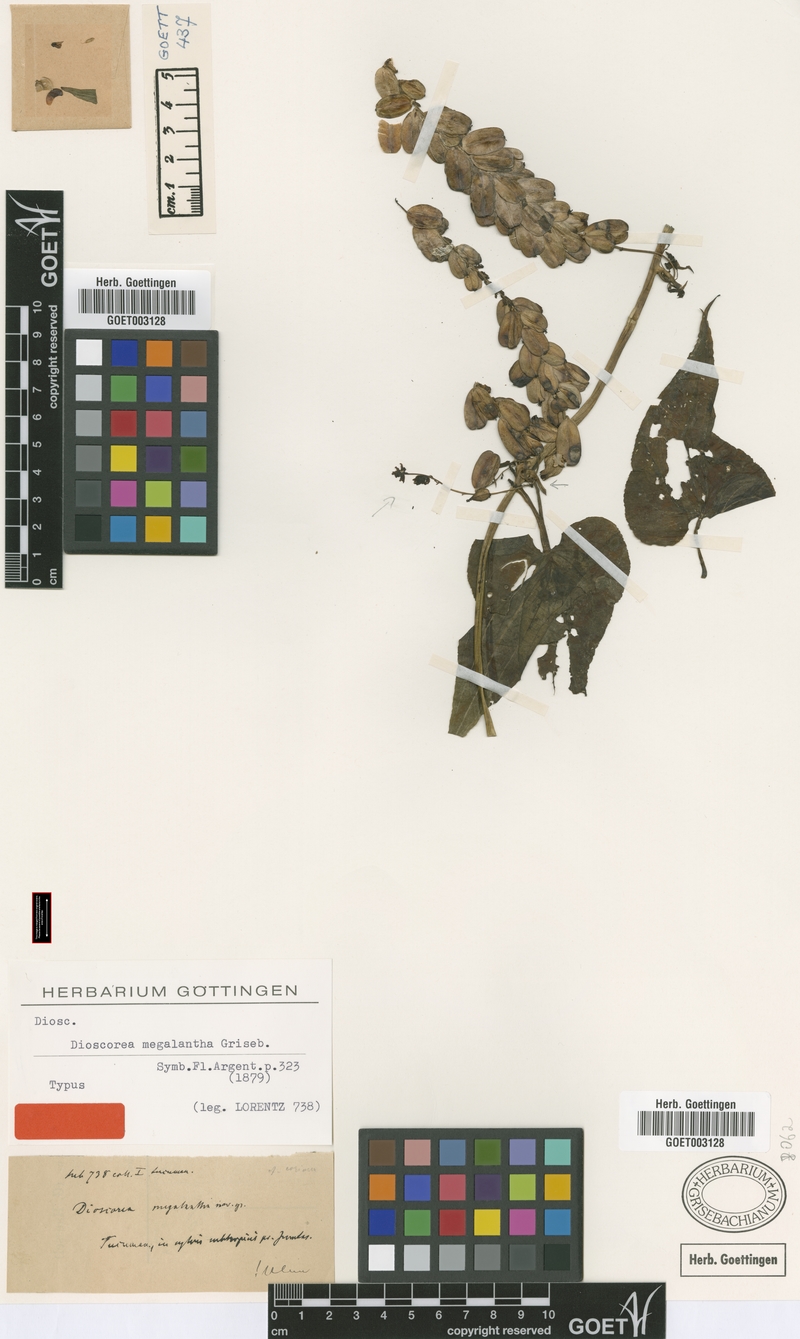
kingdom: Plantae
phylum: Tracheophyta
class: Liliopsida
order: Dioscoreales
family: Dioscoreaceae
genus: Dioscorea
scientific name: Dioscorea megalantha
